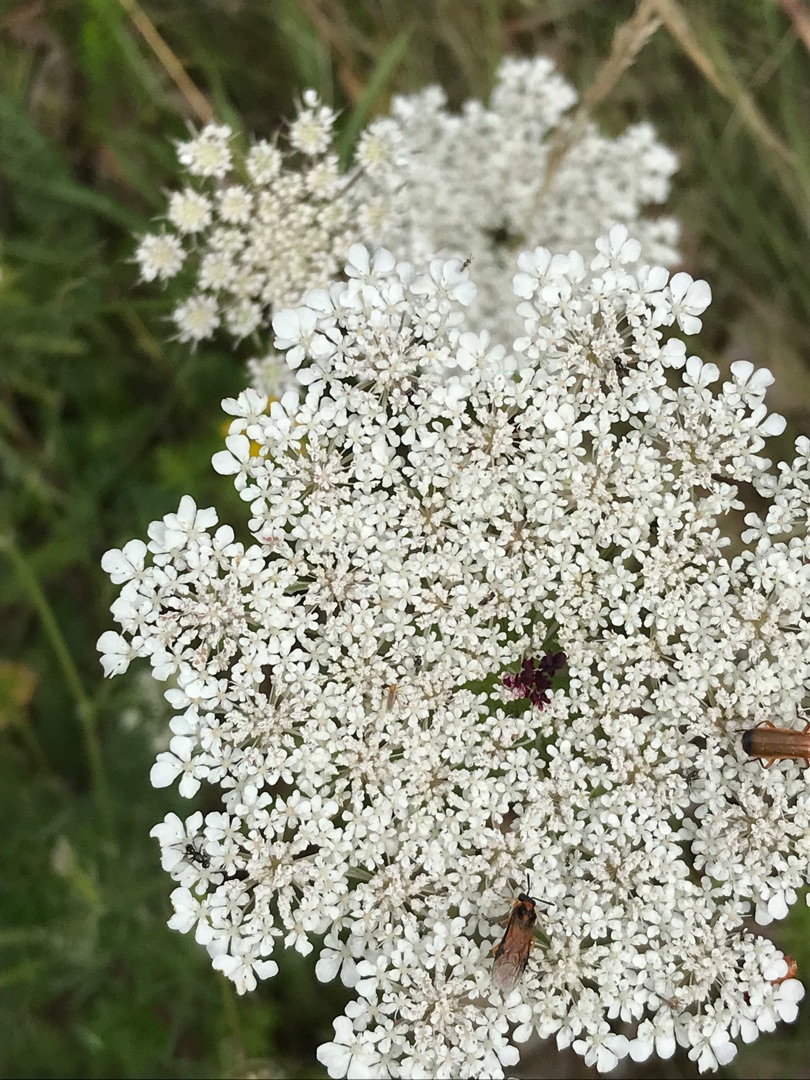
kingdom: Plantae
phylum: Tracheophyta
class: Magnoliopsida
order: Apiales
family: Apiaceae
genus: Daucus
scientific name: Daucus carota
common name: Gulerod
